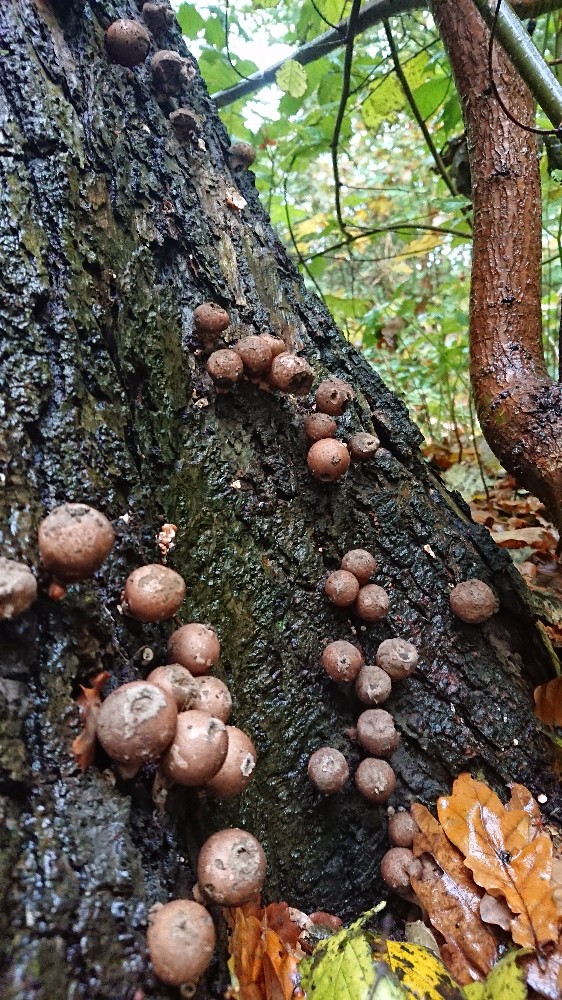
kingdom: Fungi
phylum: Basidiomycota
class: Agaricomycetes
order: Agaricales
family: Lycoperdaceae
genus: Apioperdon
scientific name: Apioperdon pyriforme
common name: pære-støvbold
